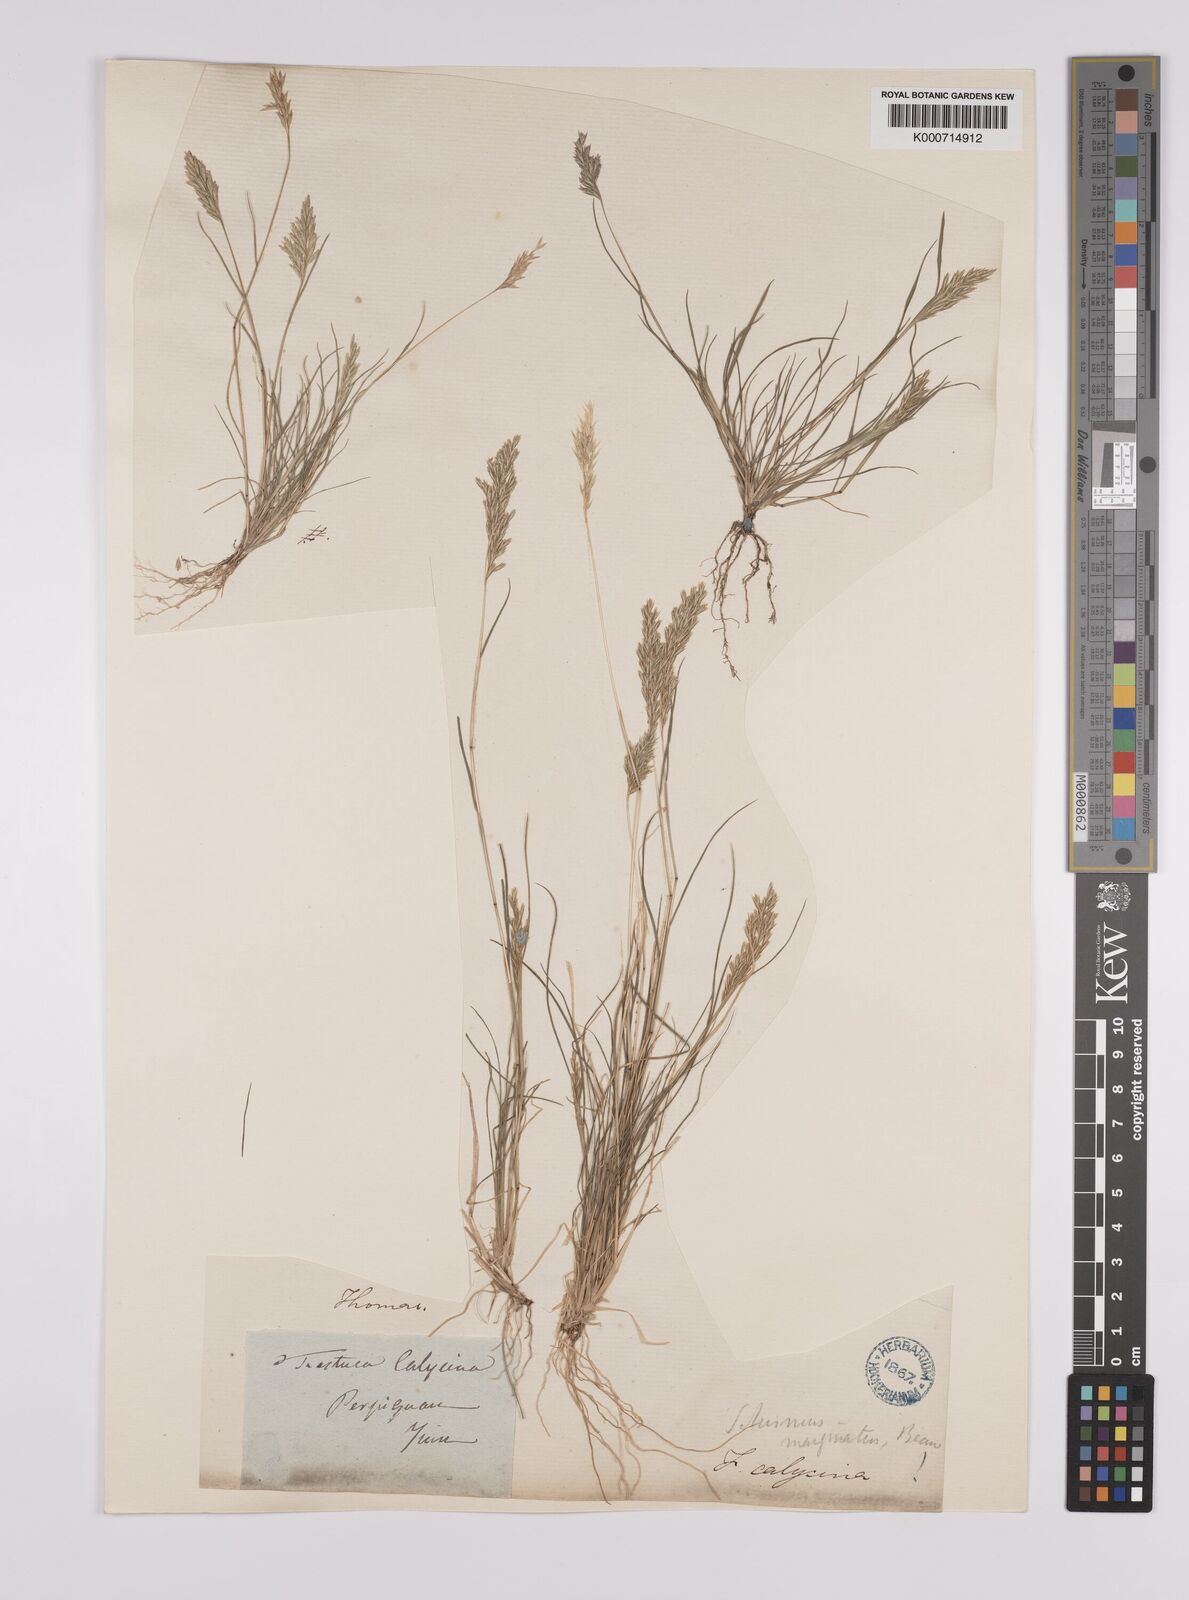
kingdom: Plantae
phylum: Tracheophyta
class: Liliopsida
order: Poales
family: Poaceae
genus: Schismus
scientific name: Schismus barbatus
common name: Kelch-grass
